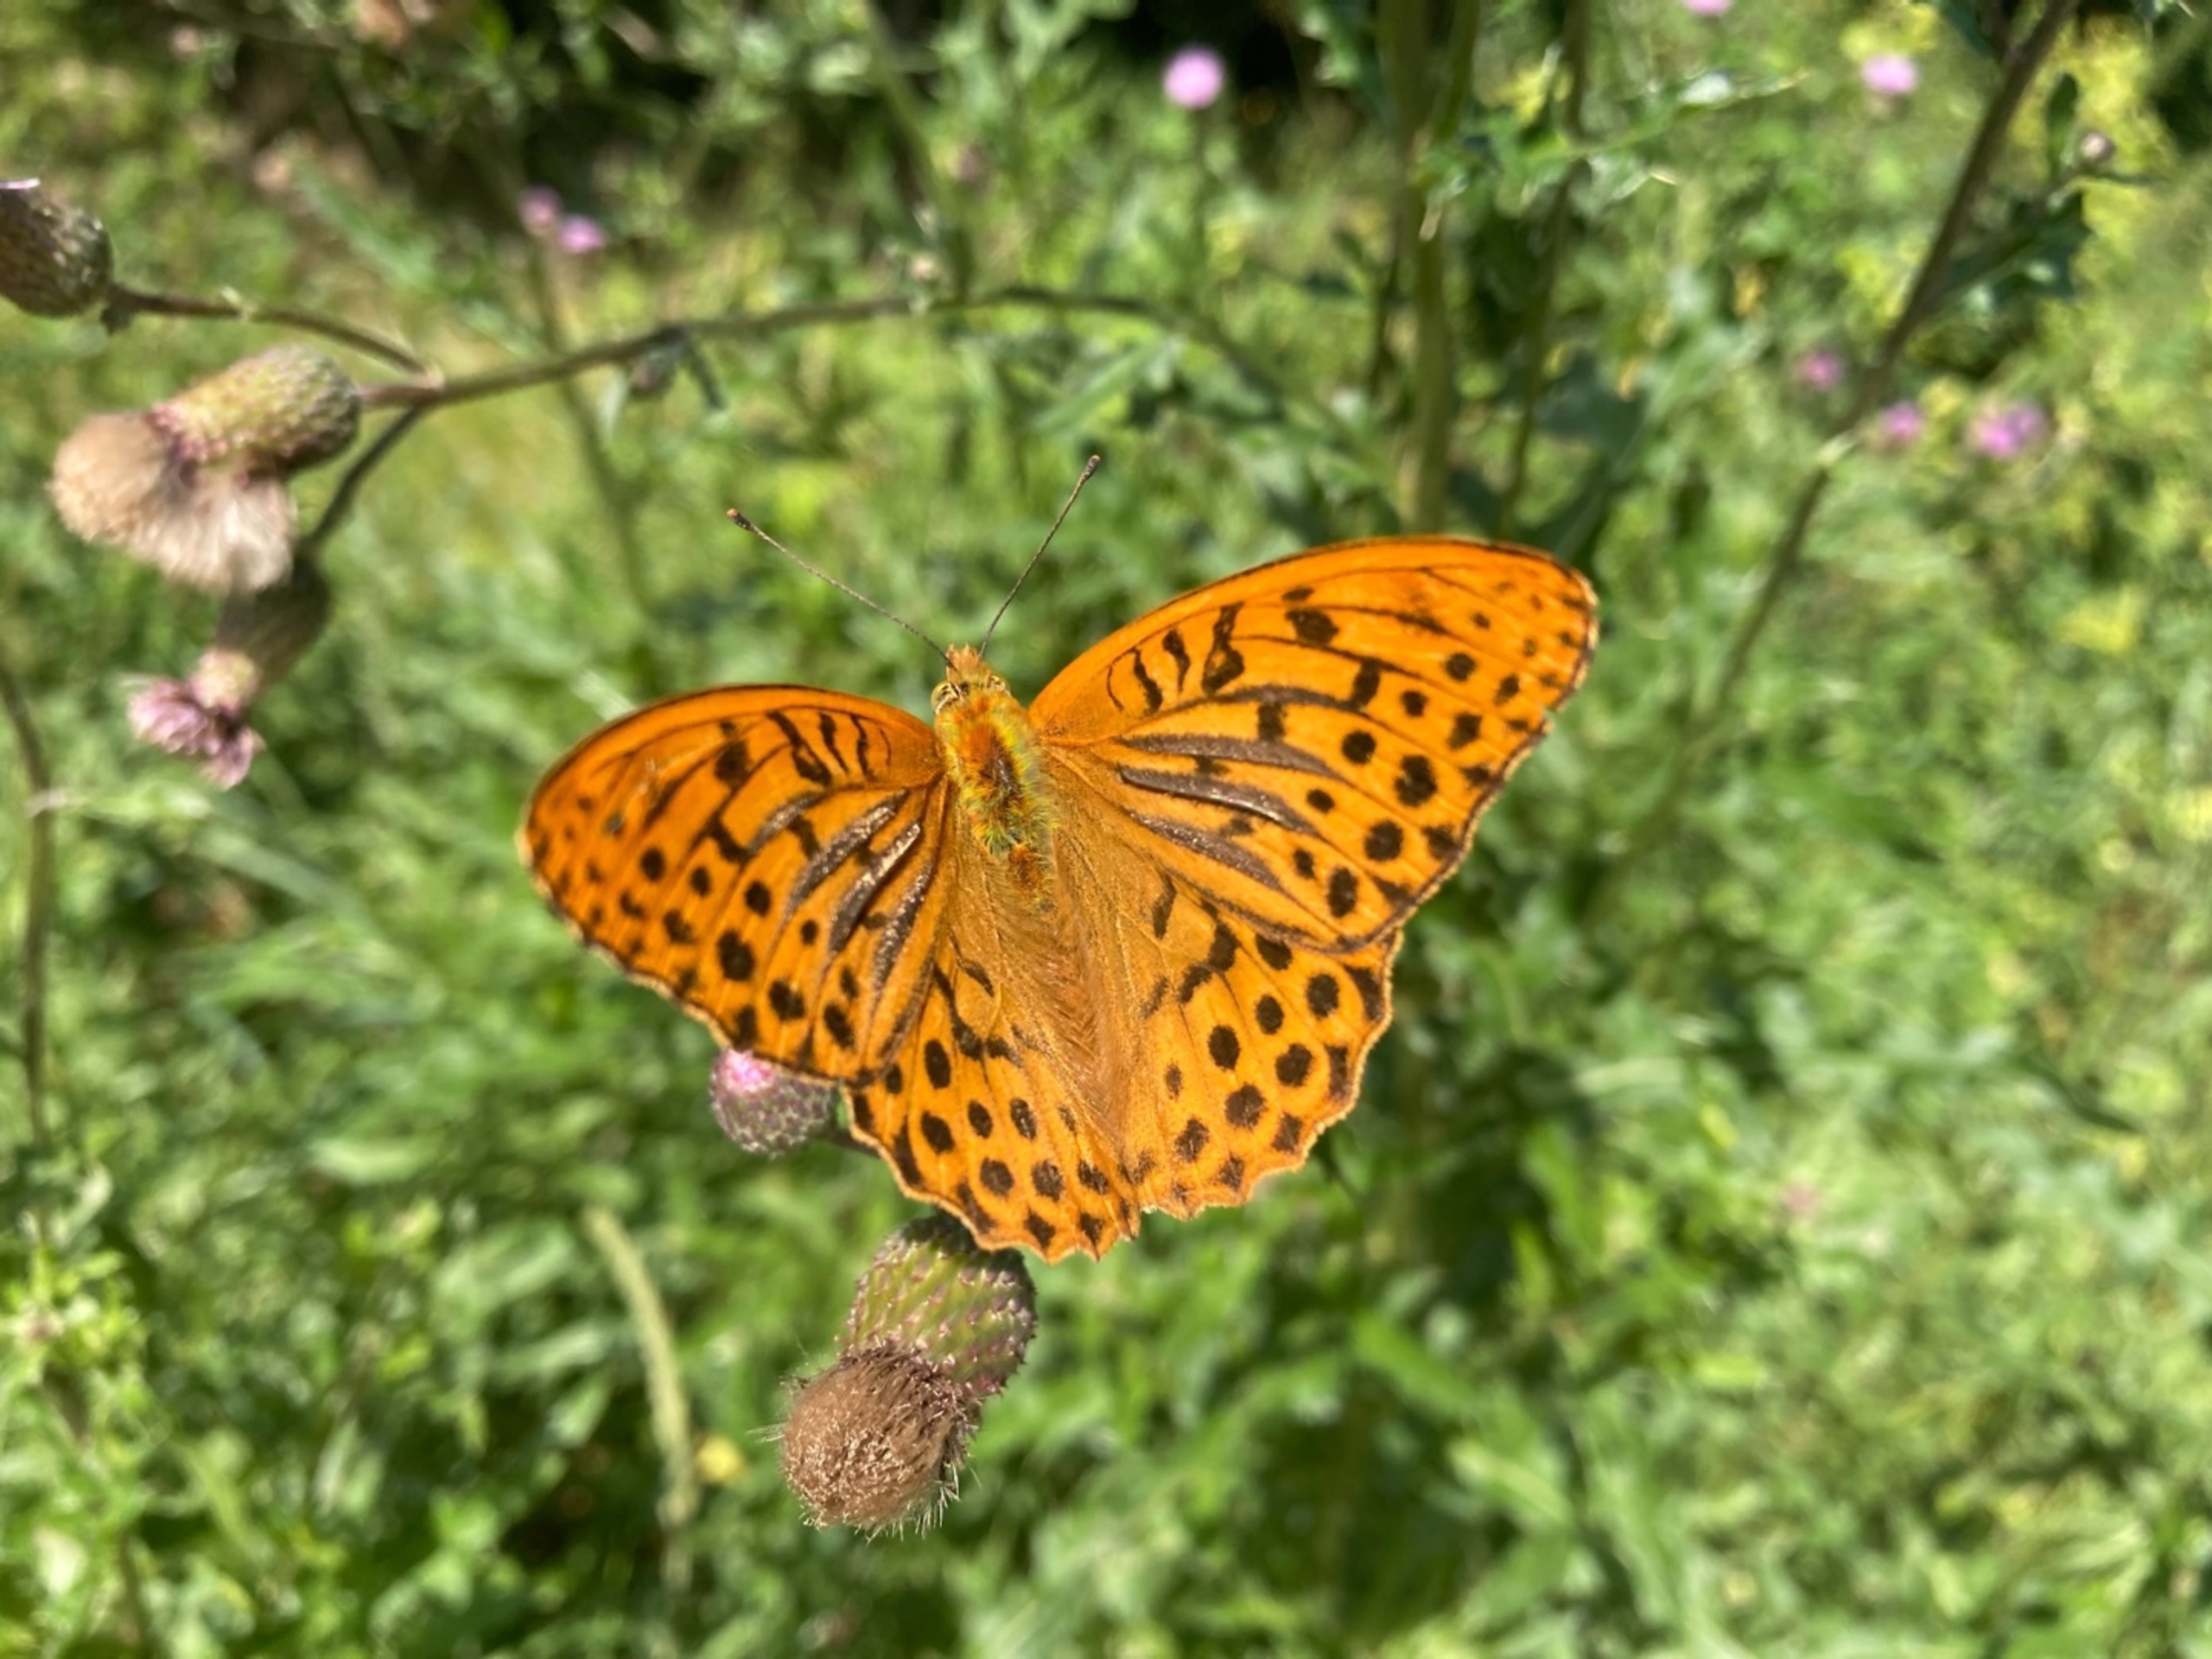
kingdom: Animalia
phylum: Arthropoda
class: Insecta
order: Lepidoptera
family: Nymphalidae
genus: Argynnis
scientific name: Argynnis paphia
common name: Kejserkåbe
